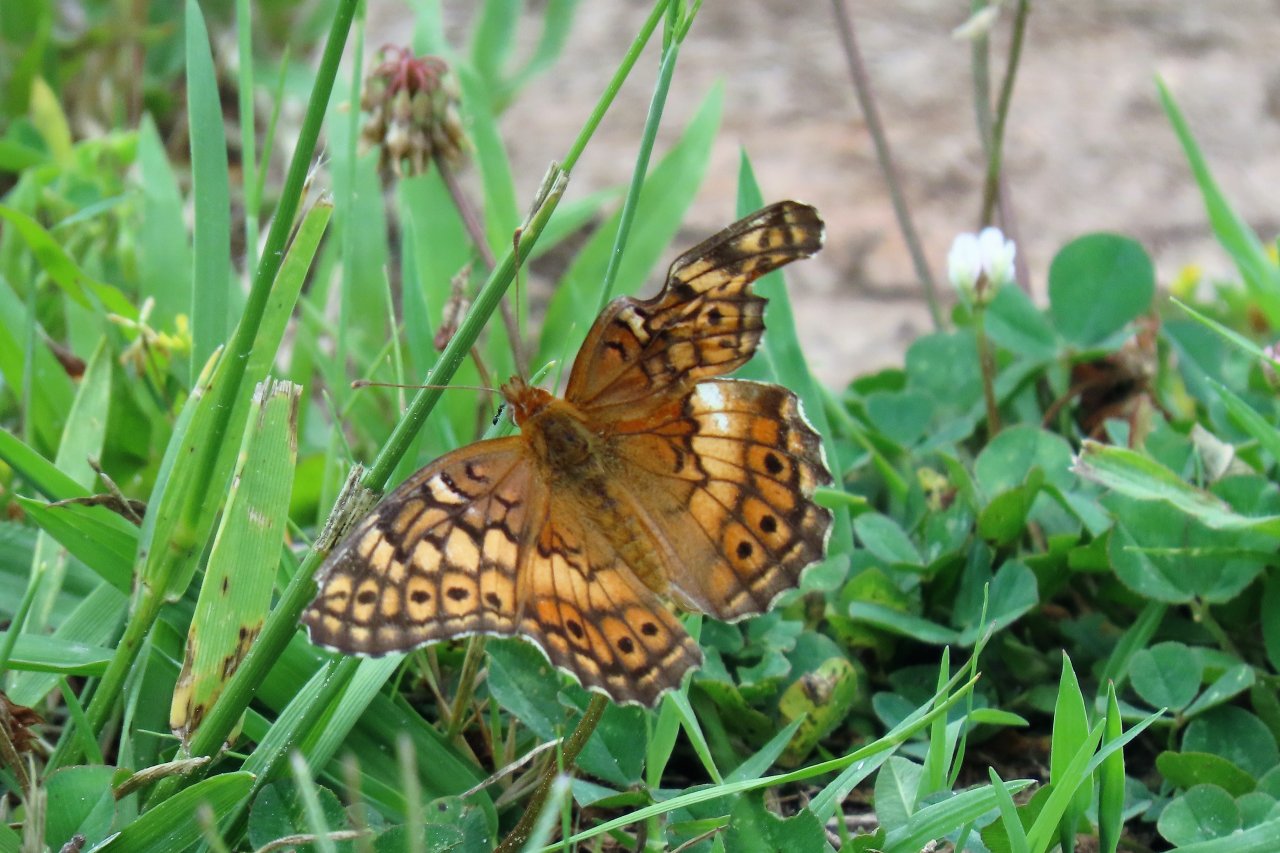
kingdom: Animalia
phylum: Arthropoda
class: Insecta
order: Lepidoptera
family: Nymphalidae
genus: Euptoieta
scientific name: Euptoieta claudia
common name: Variegated Fritillary
